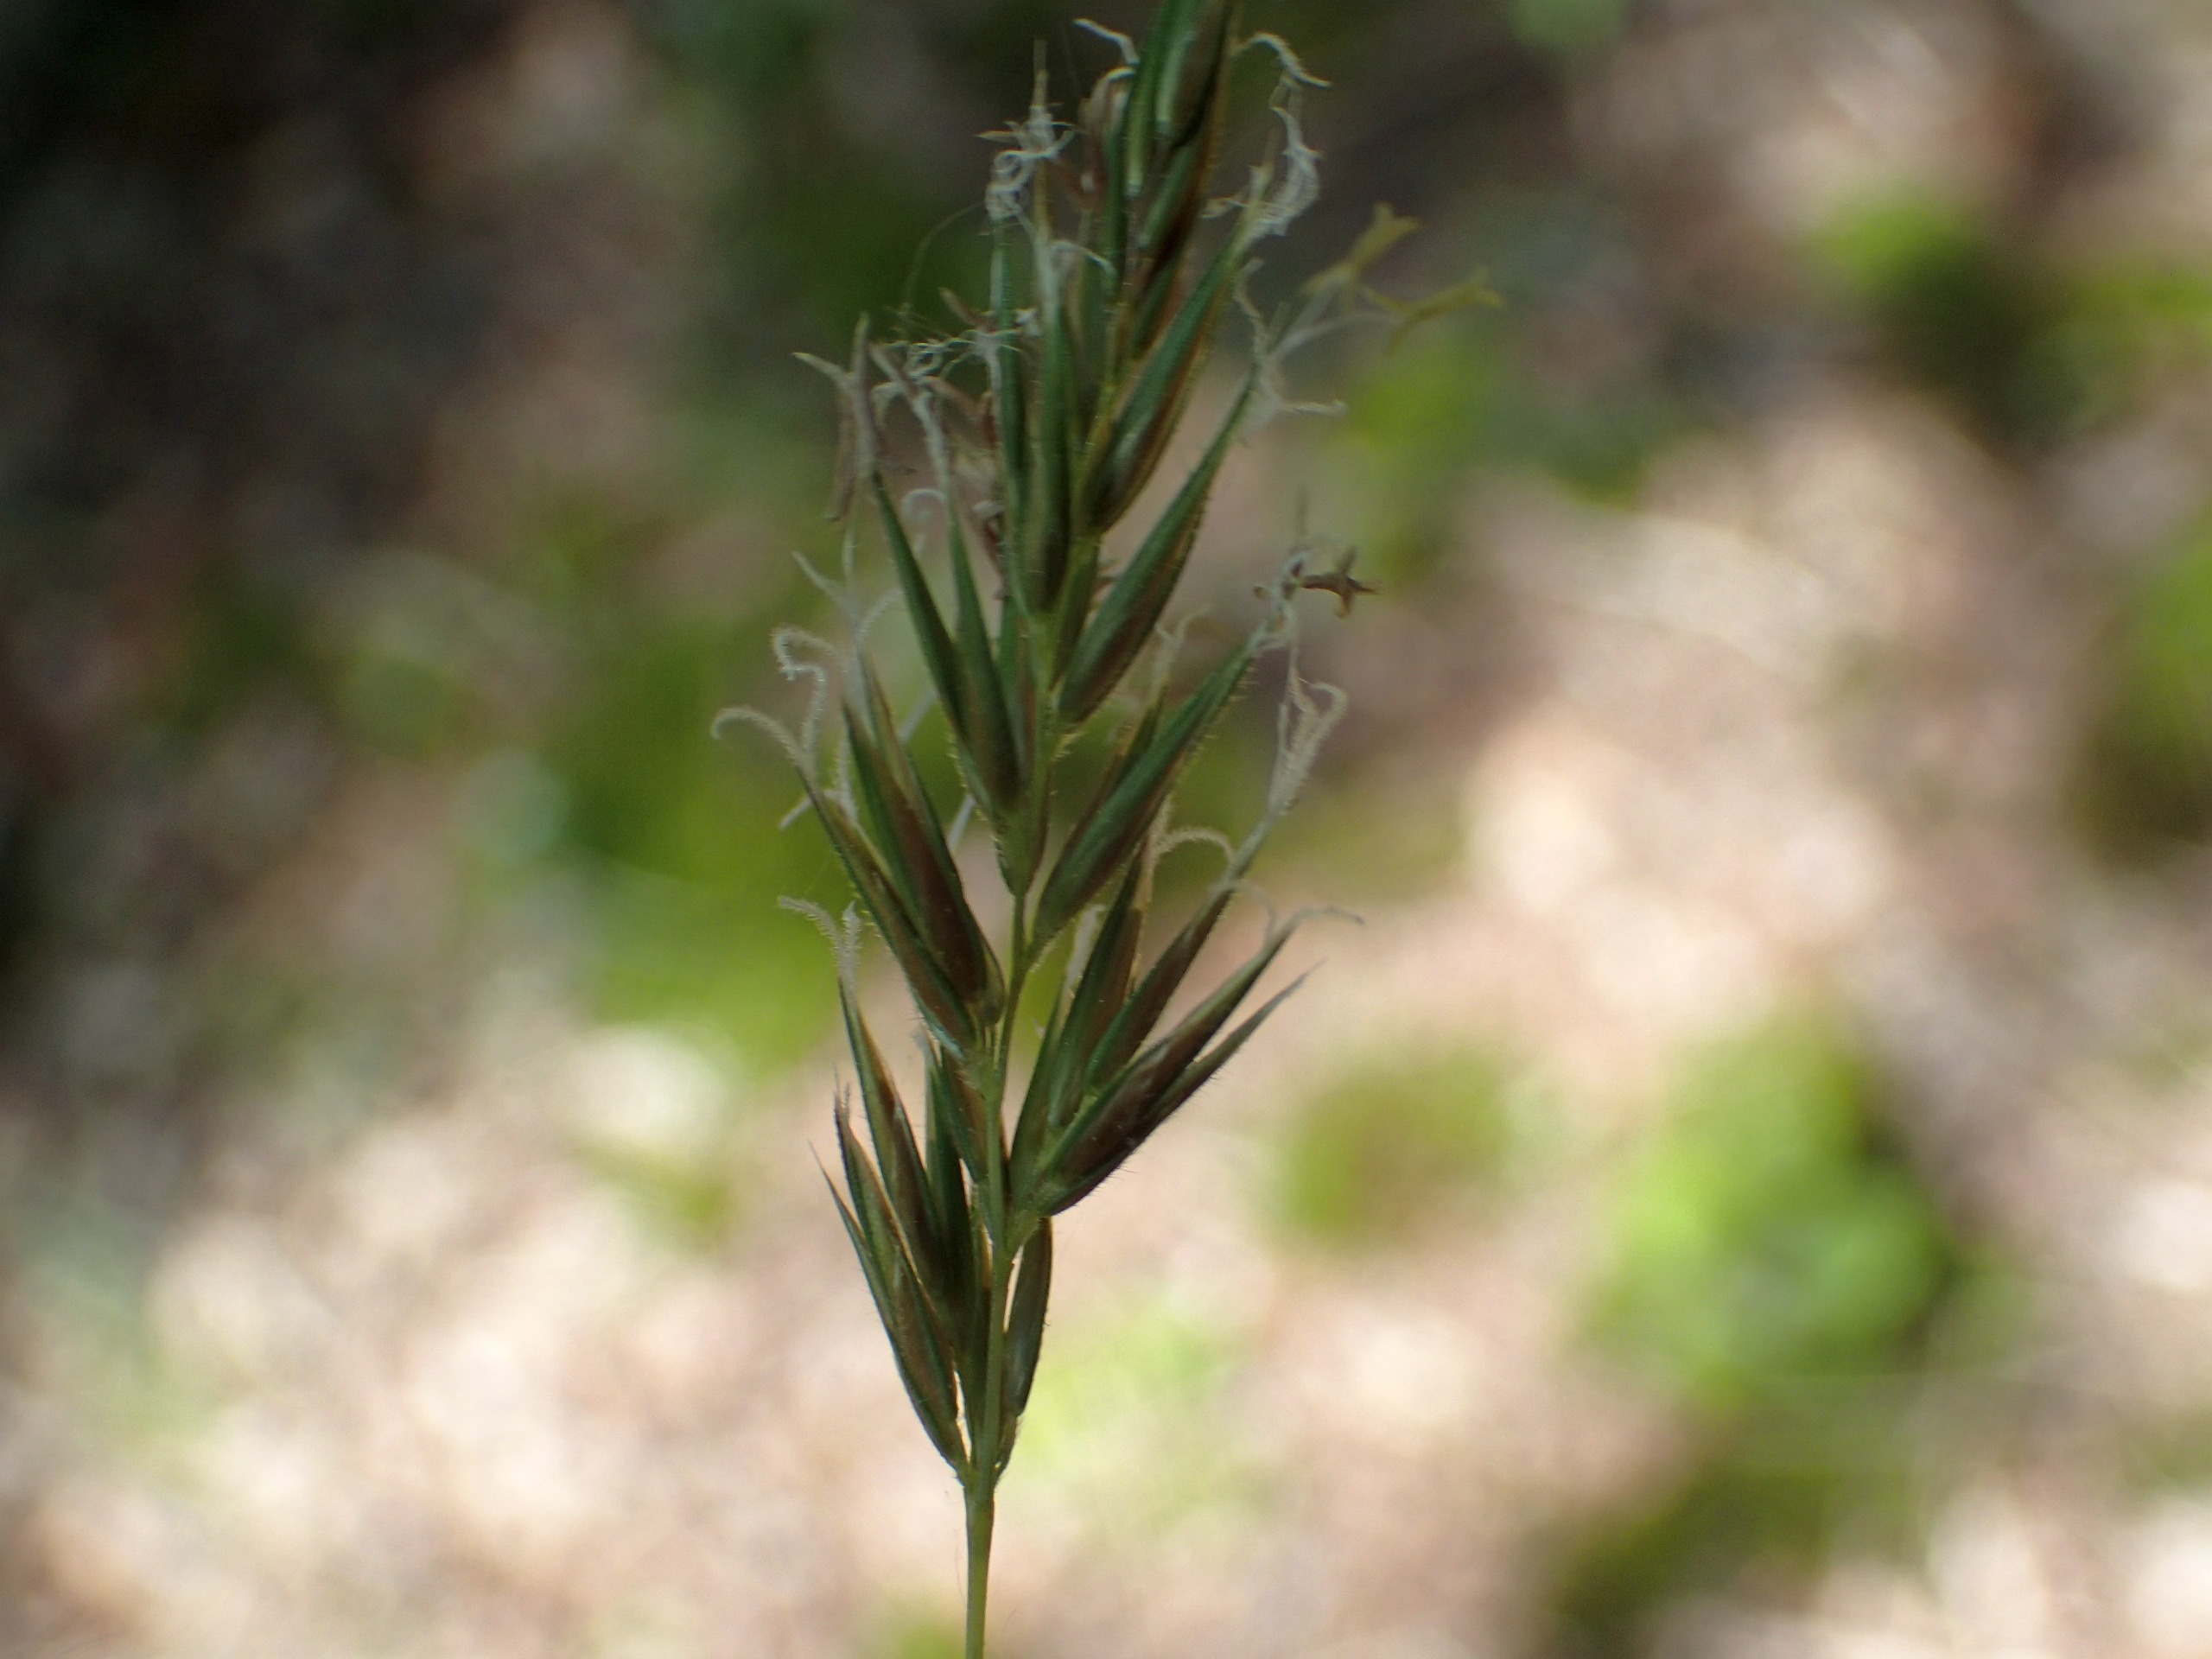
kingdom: Plantae
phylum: Tracheophyta
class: Liliopsida
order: Poales
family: Poaceae
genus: Anthoxanthum
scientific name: Anthoxanthum odoratum
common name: Vellugtende gulaks
